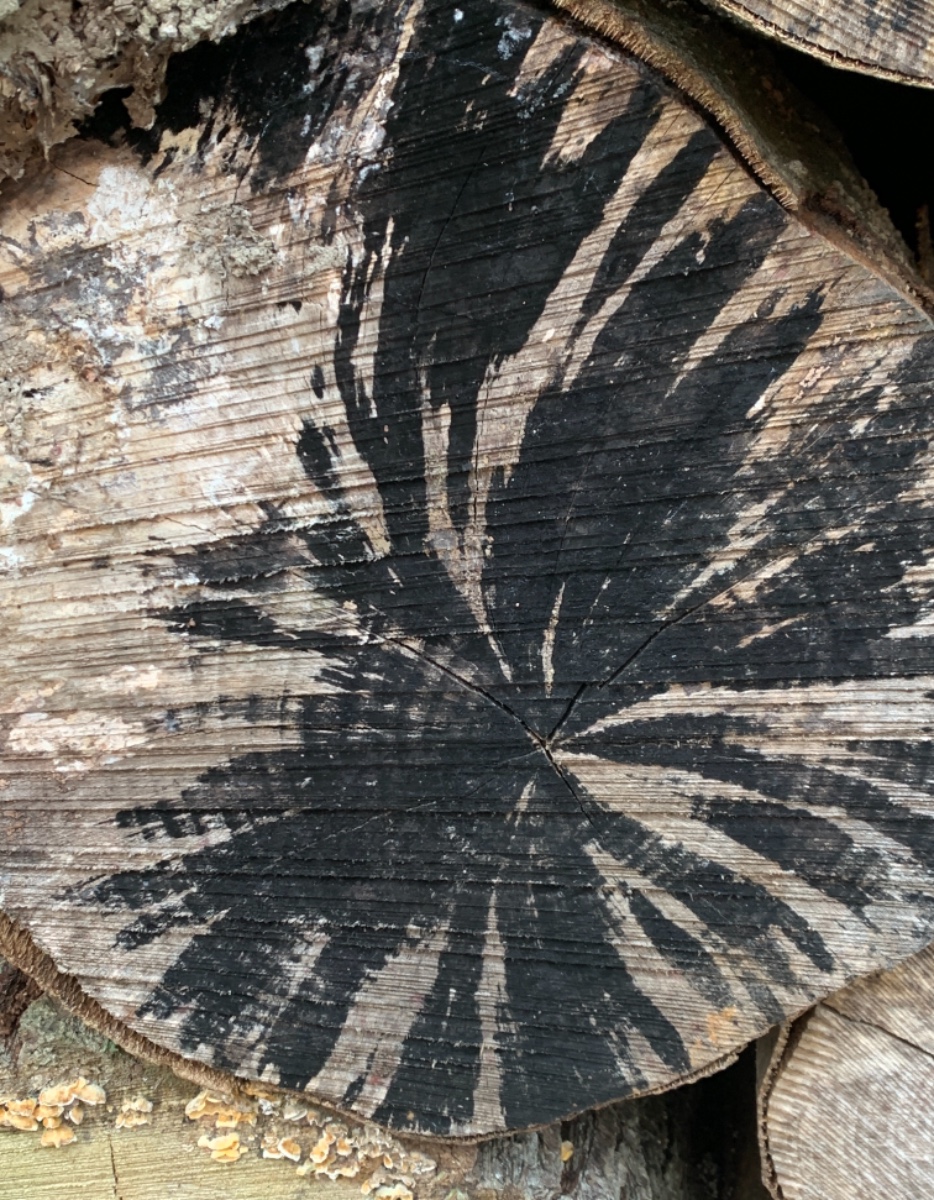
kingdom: Fungi
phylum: Ascomycota
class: Leotiomycetes
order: Helotiales
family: Helotiaceae
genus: Bispora
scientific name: Bispora pallescens
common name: måtte-snitskive
